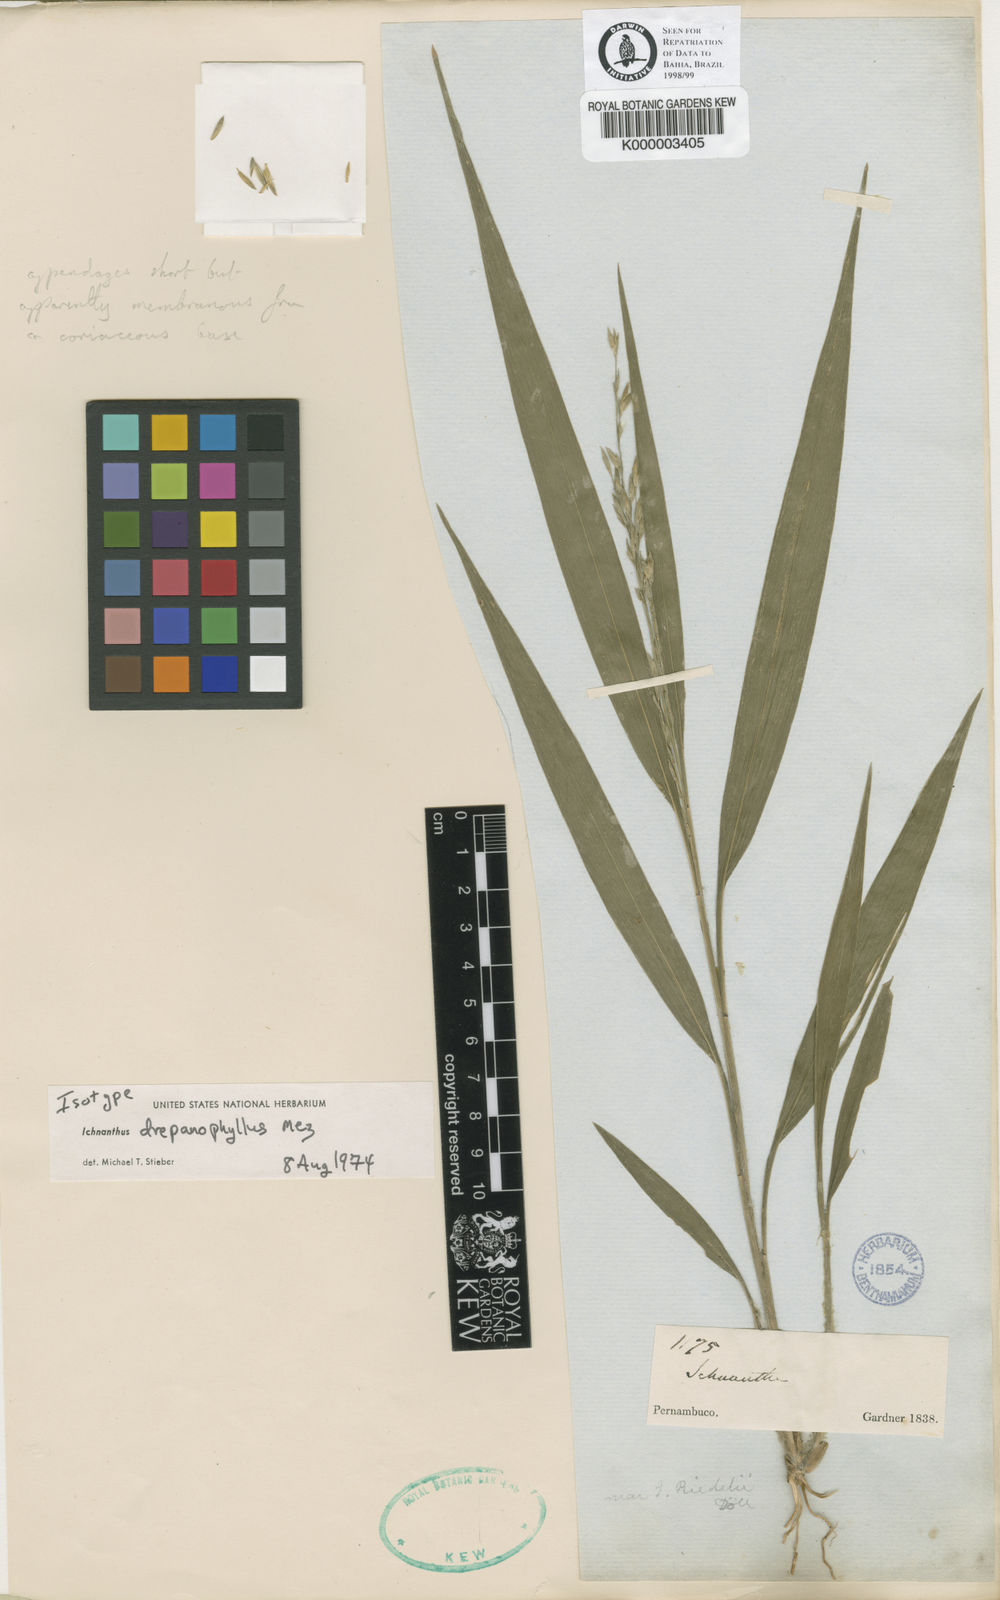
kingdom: Plantae
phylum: Tracheophyta
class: Liliopsida
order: Poales
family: Poaceae
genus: Ichnanthus
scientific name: Ichnanthus
